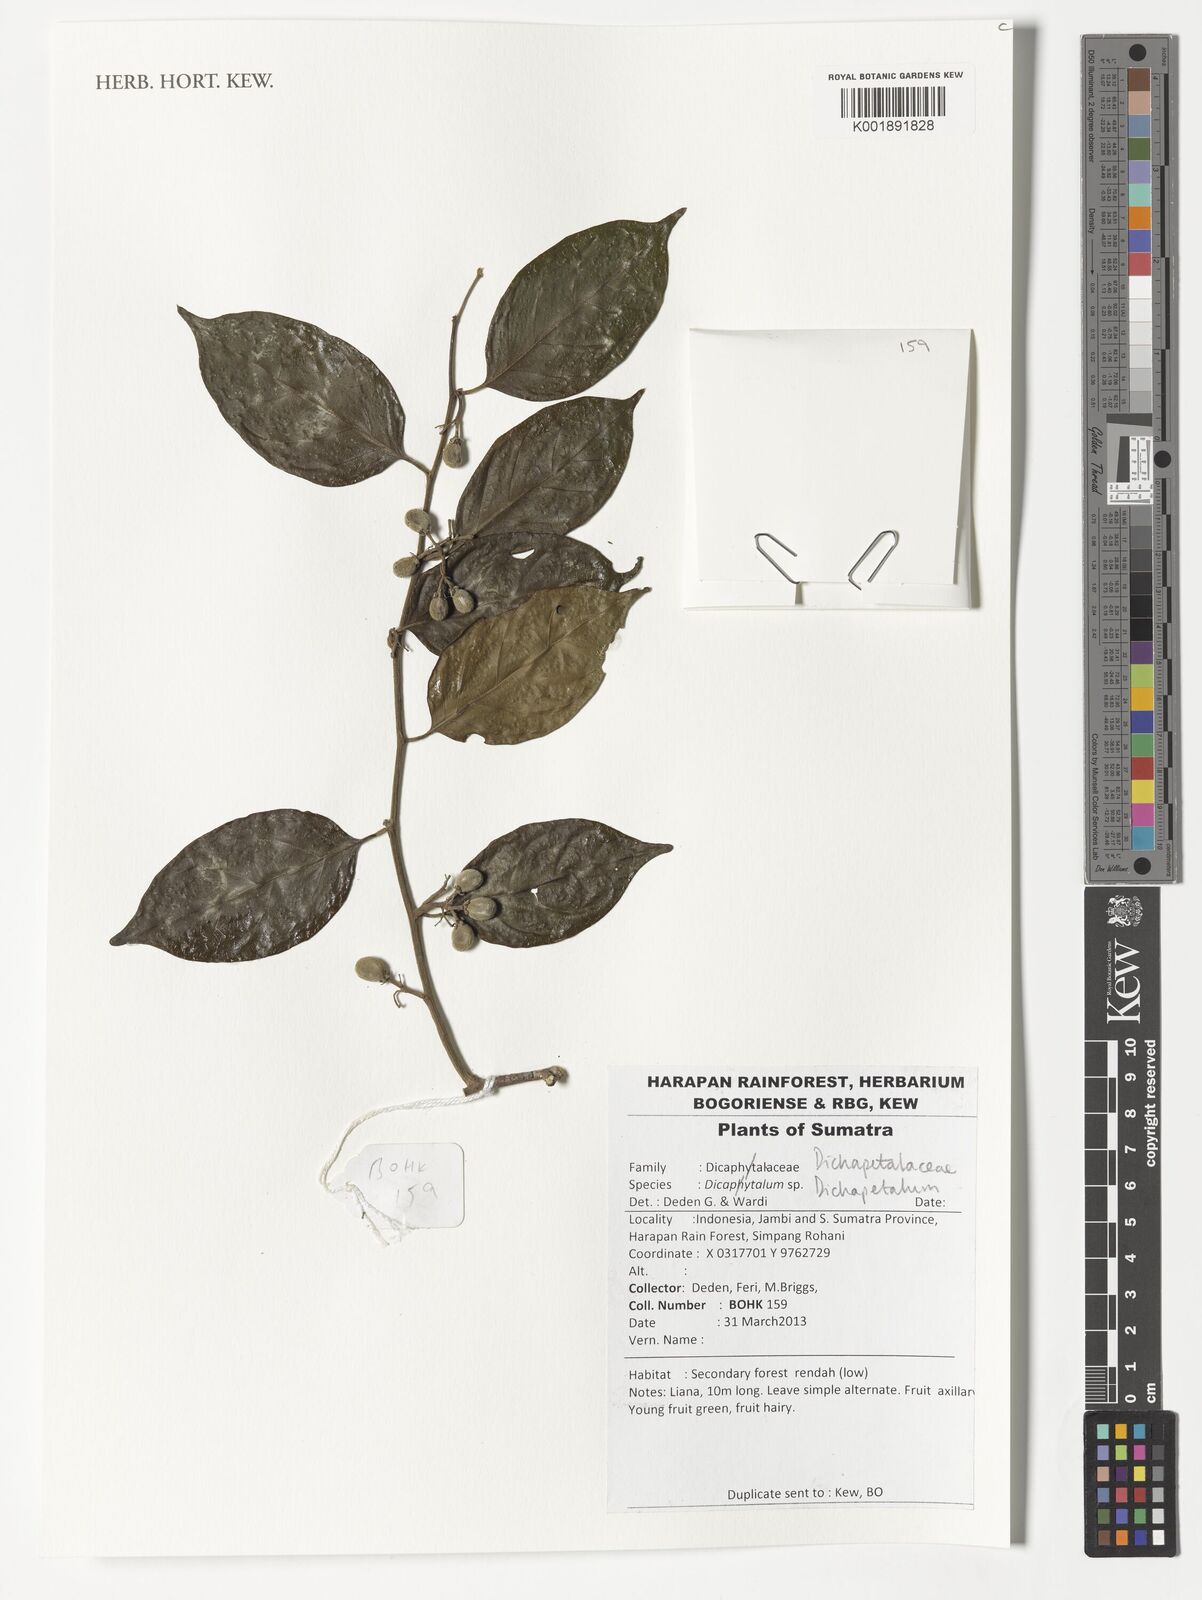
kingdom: Plantae
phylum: Tracheophyta
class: Magnoliopsida
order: Malpighiales
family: Dichapetalaceae
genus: Dichapetalum
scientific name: Dichapetalum
